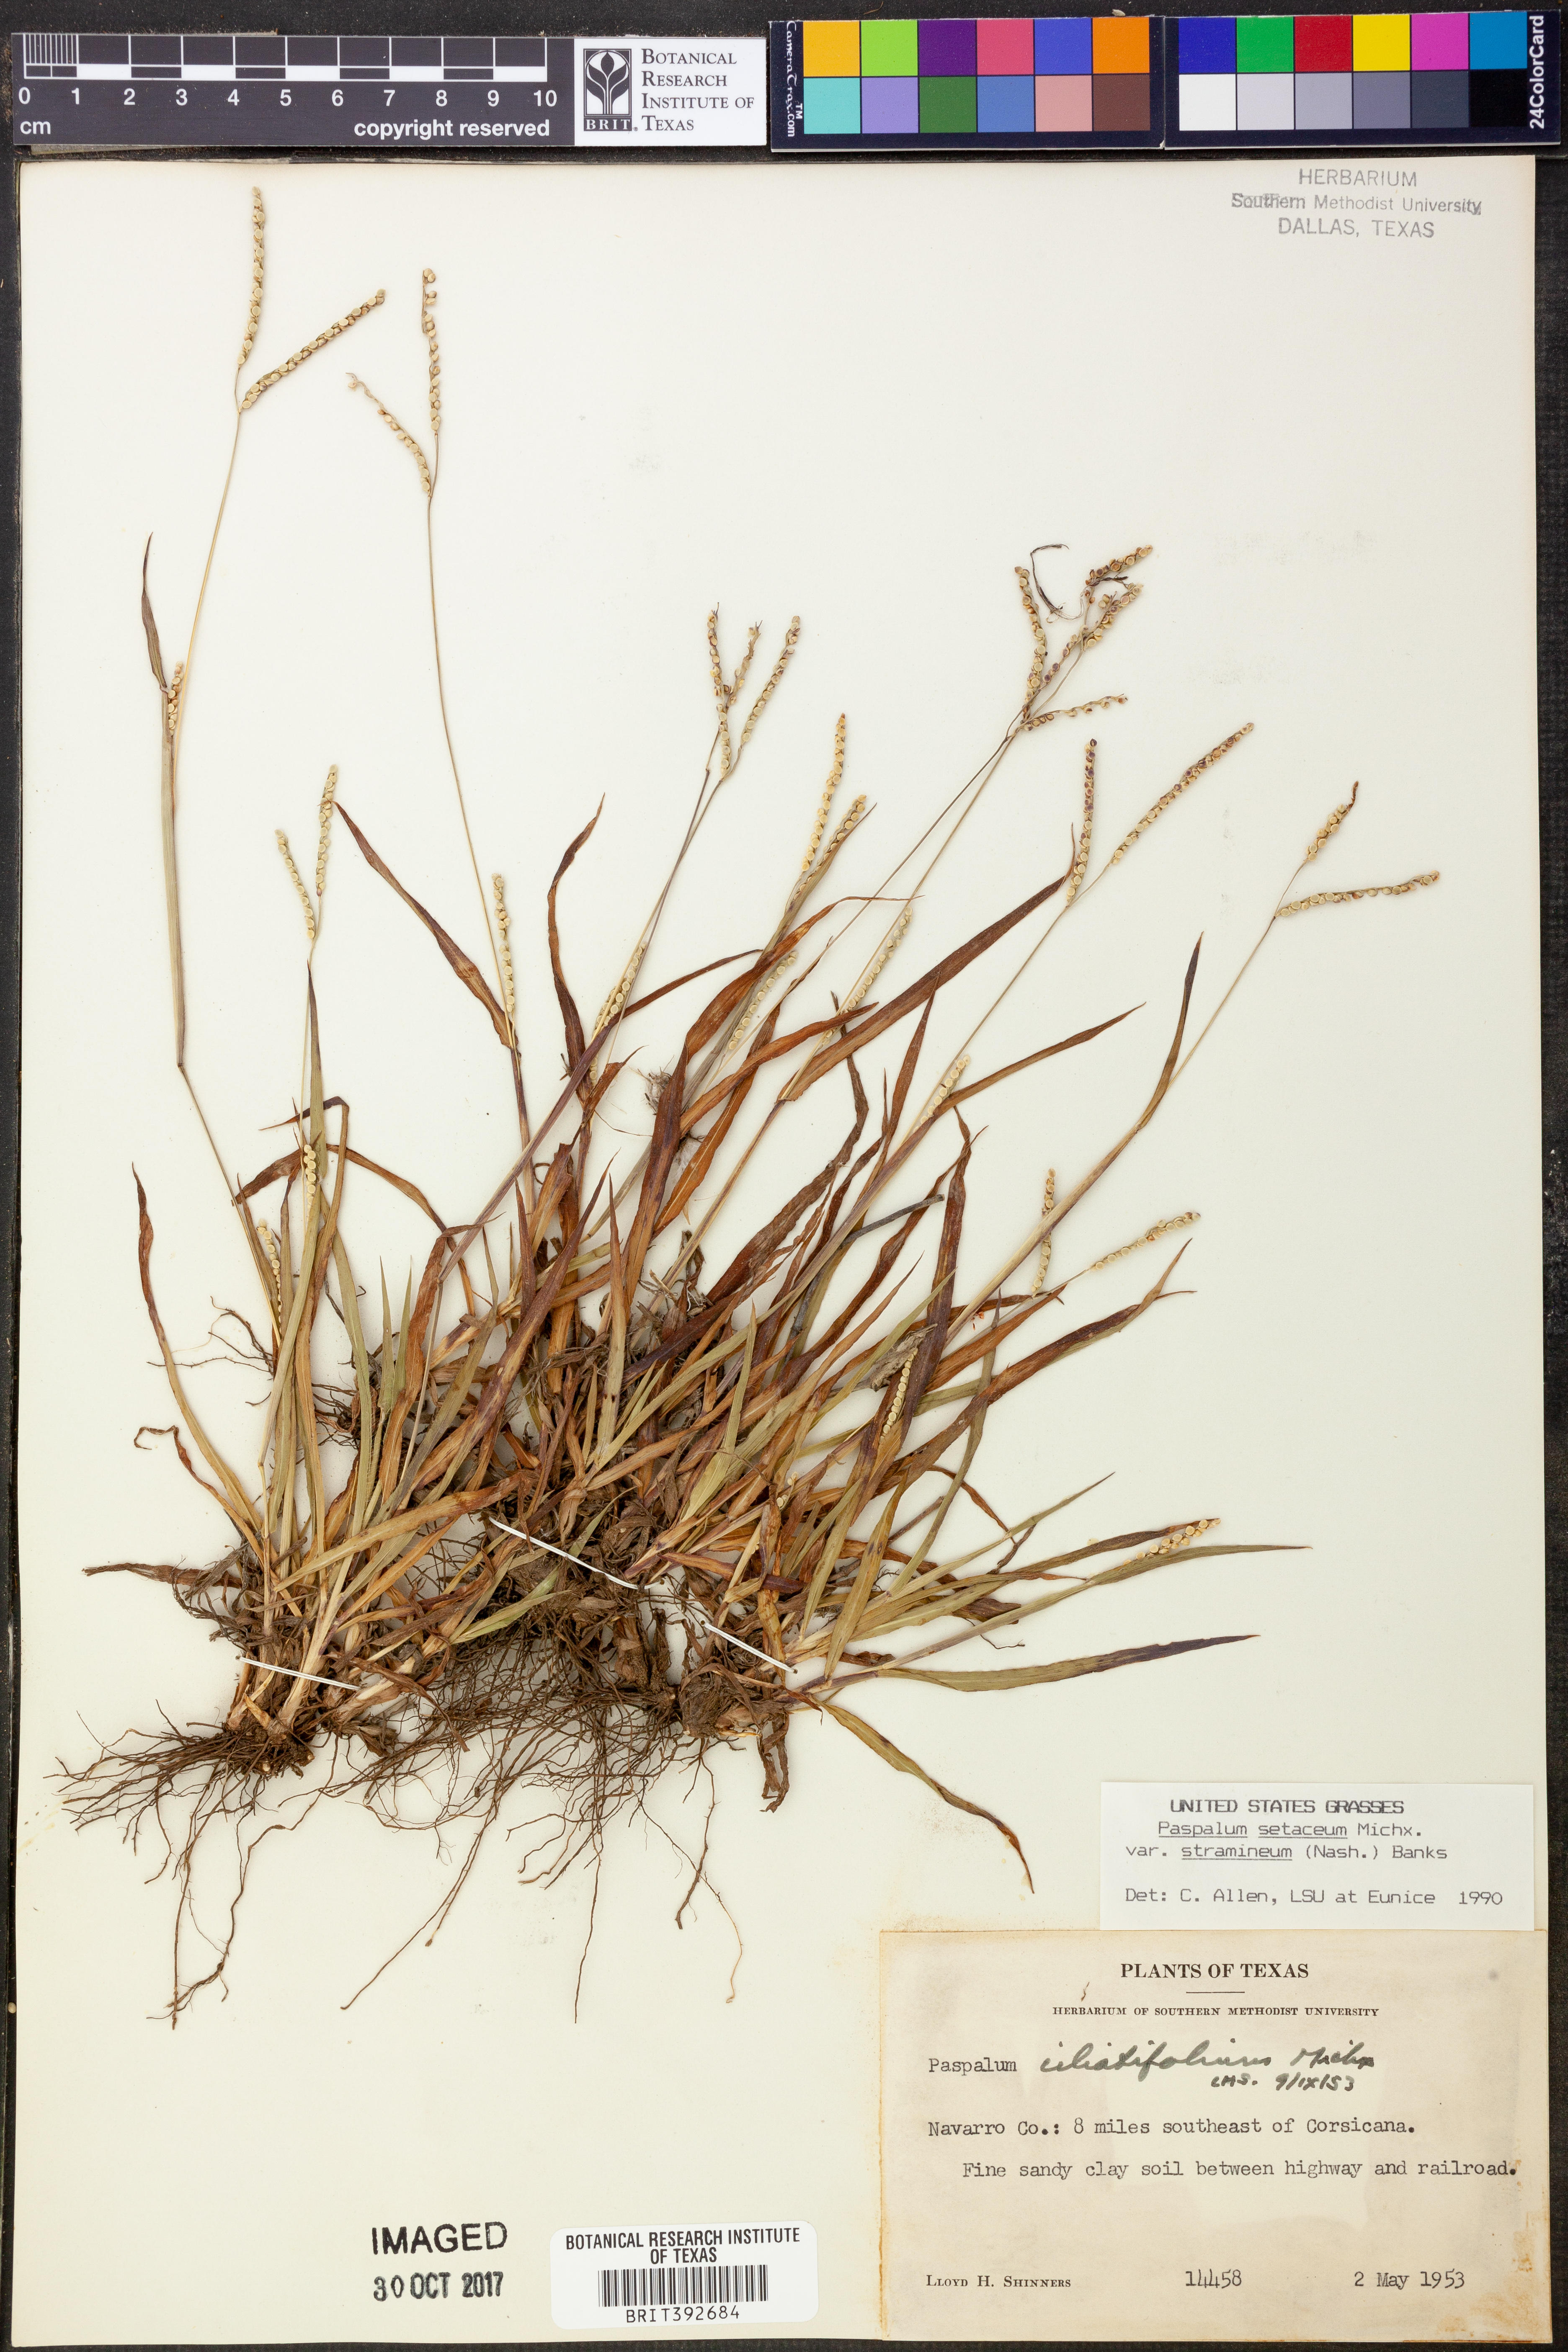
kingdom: Plantae
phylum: Tracheophyta
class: Liliopsida
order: Poales
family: Poaceae
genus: Paspalum
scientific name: Paspalum setaceum
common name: Slender paspalum
